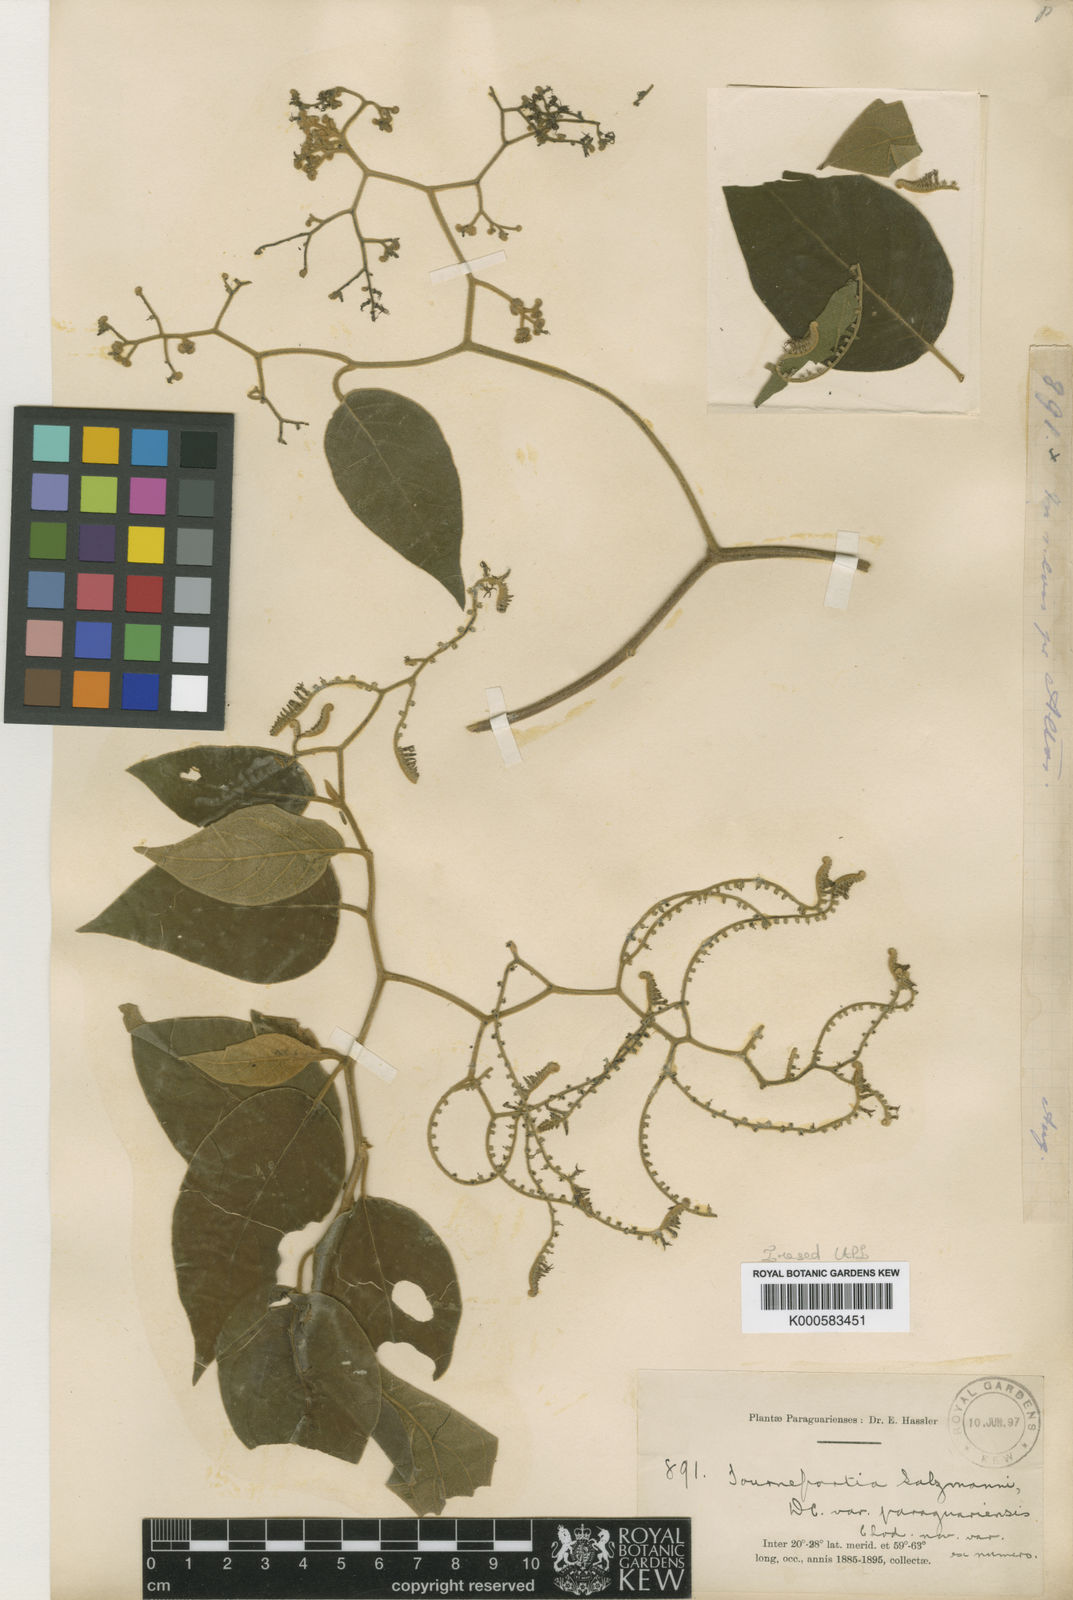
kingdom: Plantae
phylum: Tracheophyta
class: Magnoliopsida
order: Boraginales
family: Heliotropiaceae
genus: Myriopus
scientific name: Myriopus salzmannii
